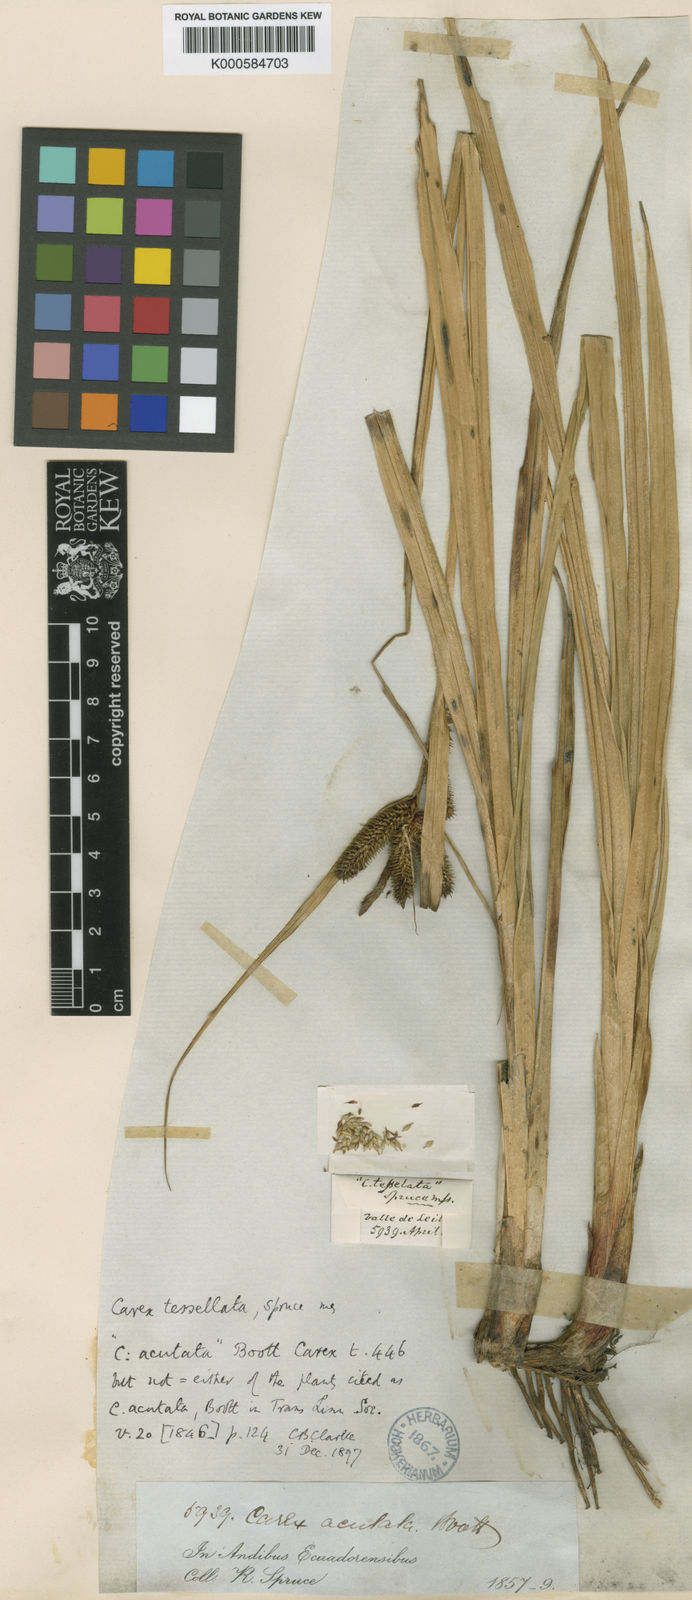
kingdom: Plantae
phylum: Tracheophyta
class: Liliopsida
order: Poales
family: Cyperaceae
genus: Carex
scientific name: Carex acutata
